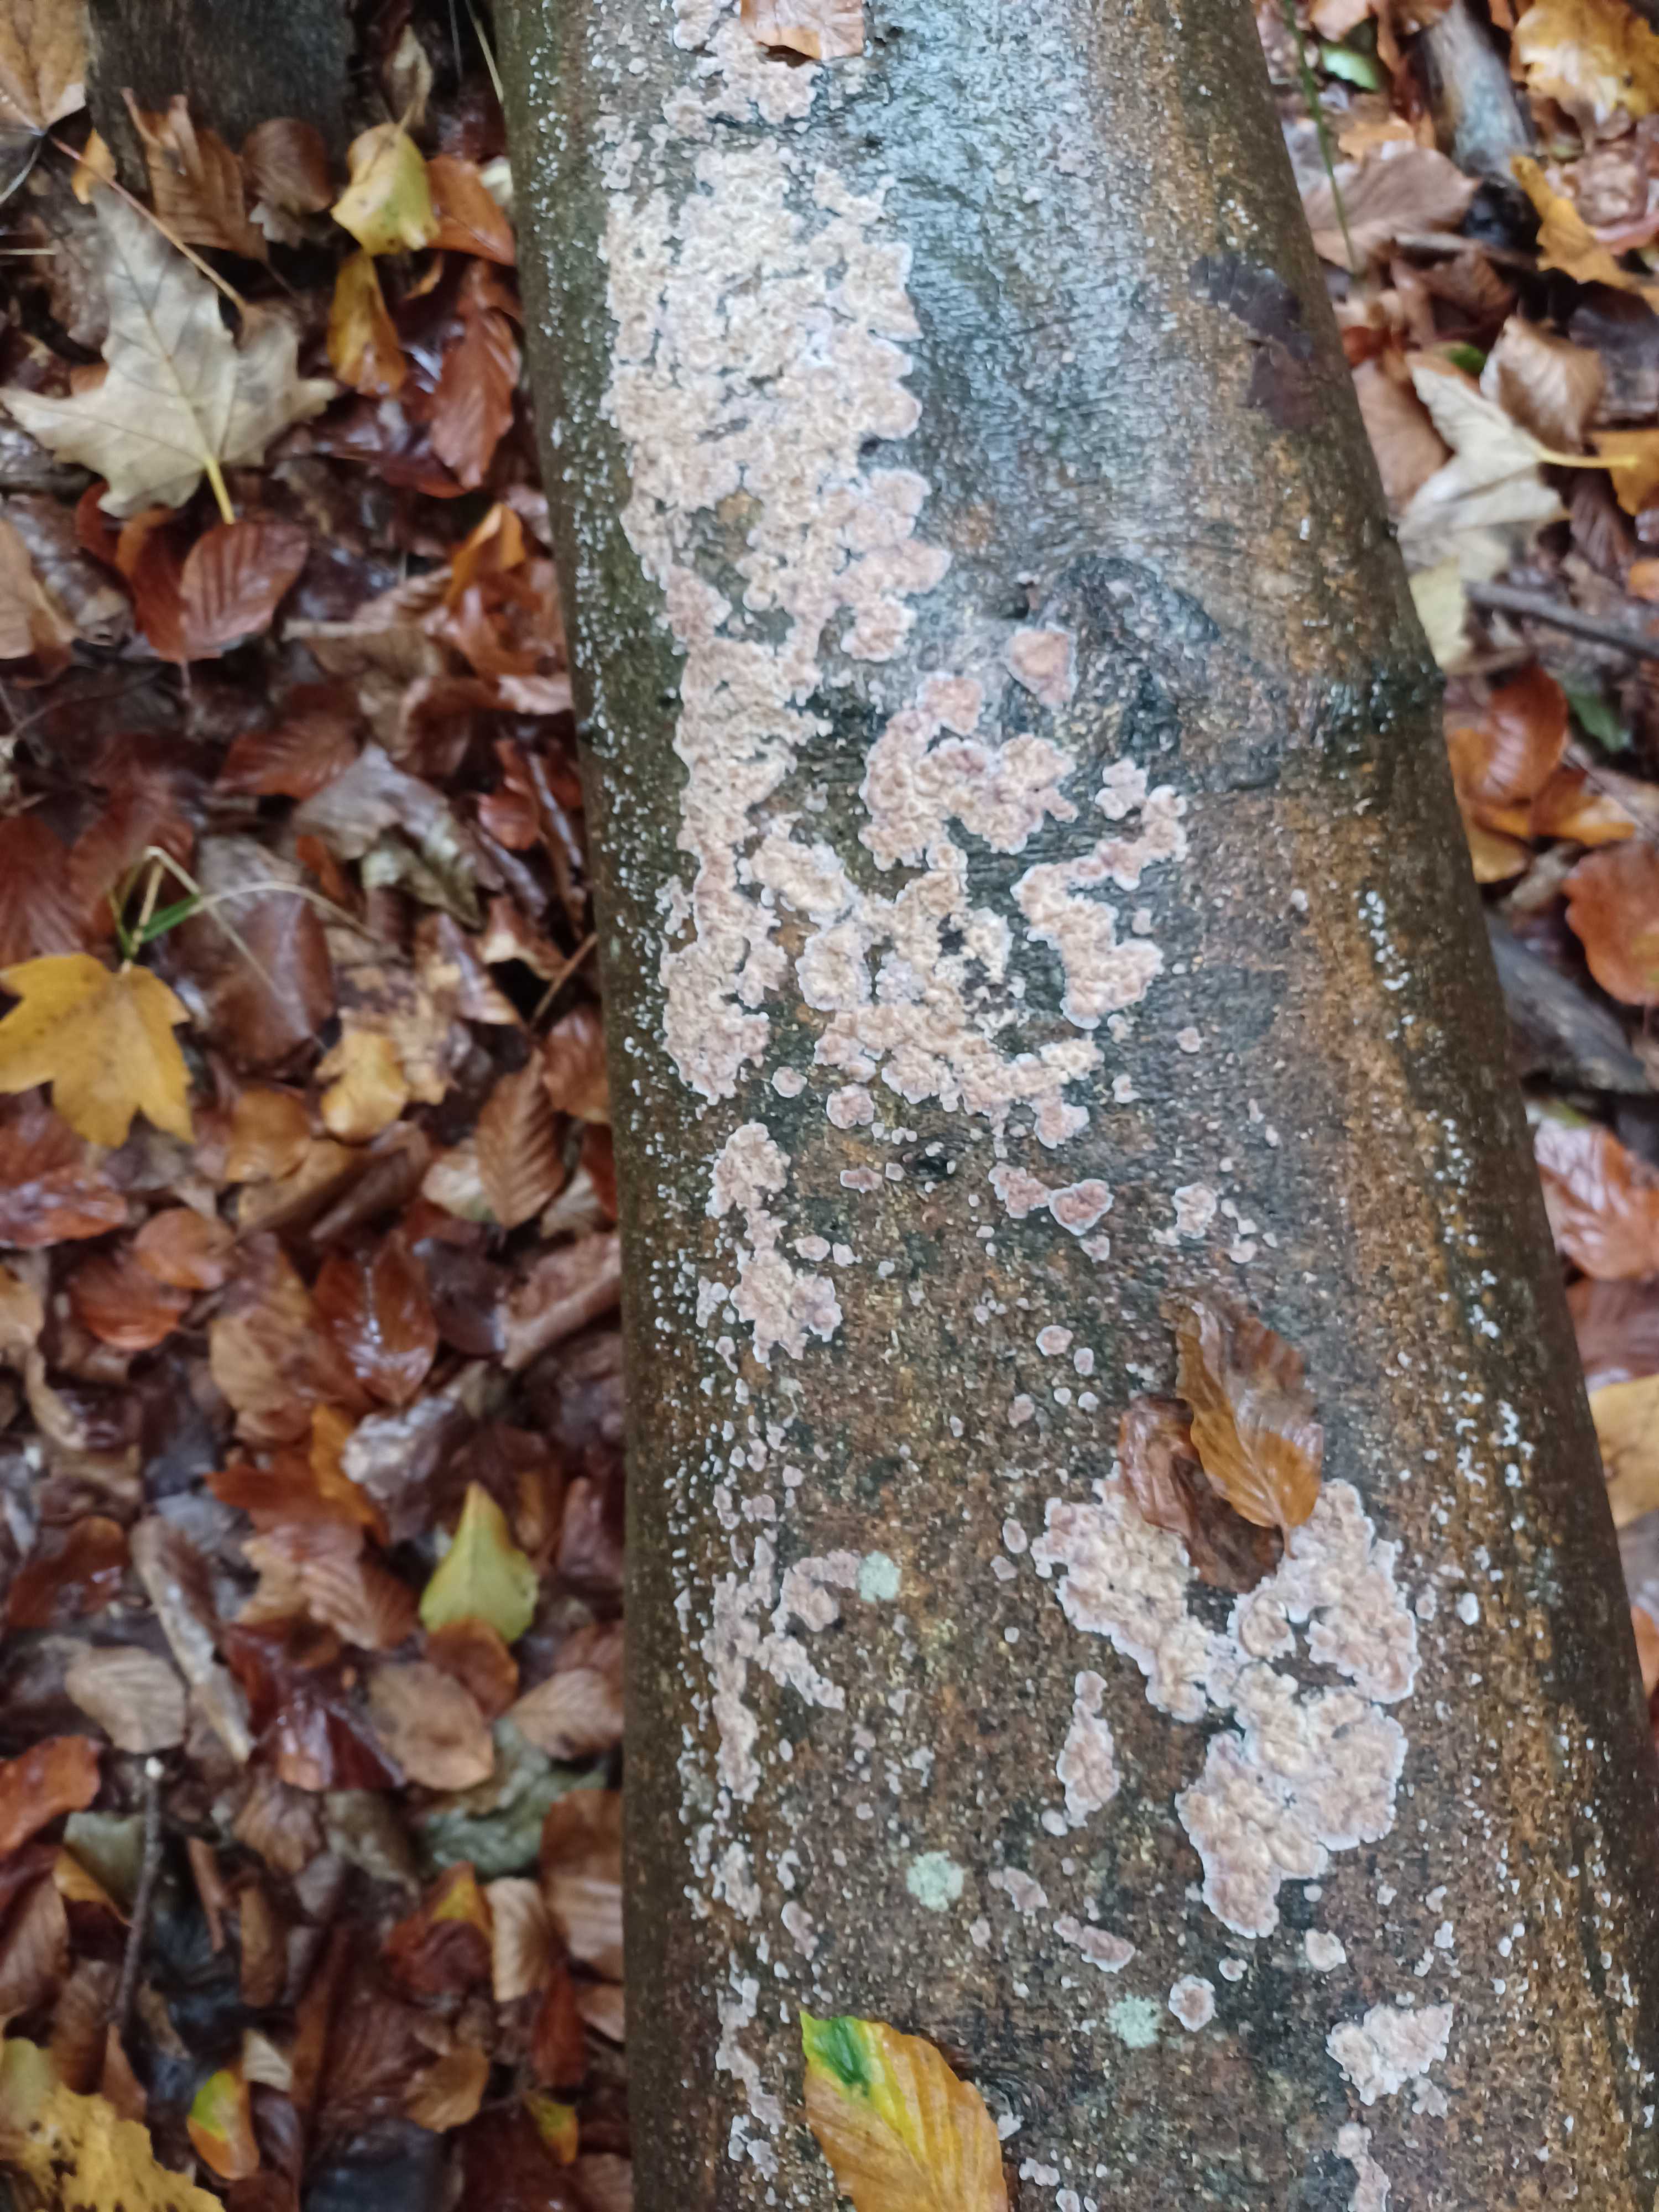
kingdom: Fungi
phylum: Basidiomycota
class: Agaricomycetes
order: Russulales
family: Peniophoraceae
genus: Peniophora
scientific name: Peniophora incarnata
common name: laksefarvet voksskind
